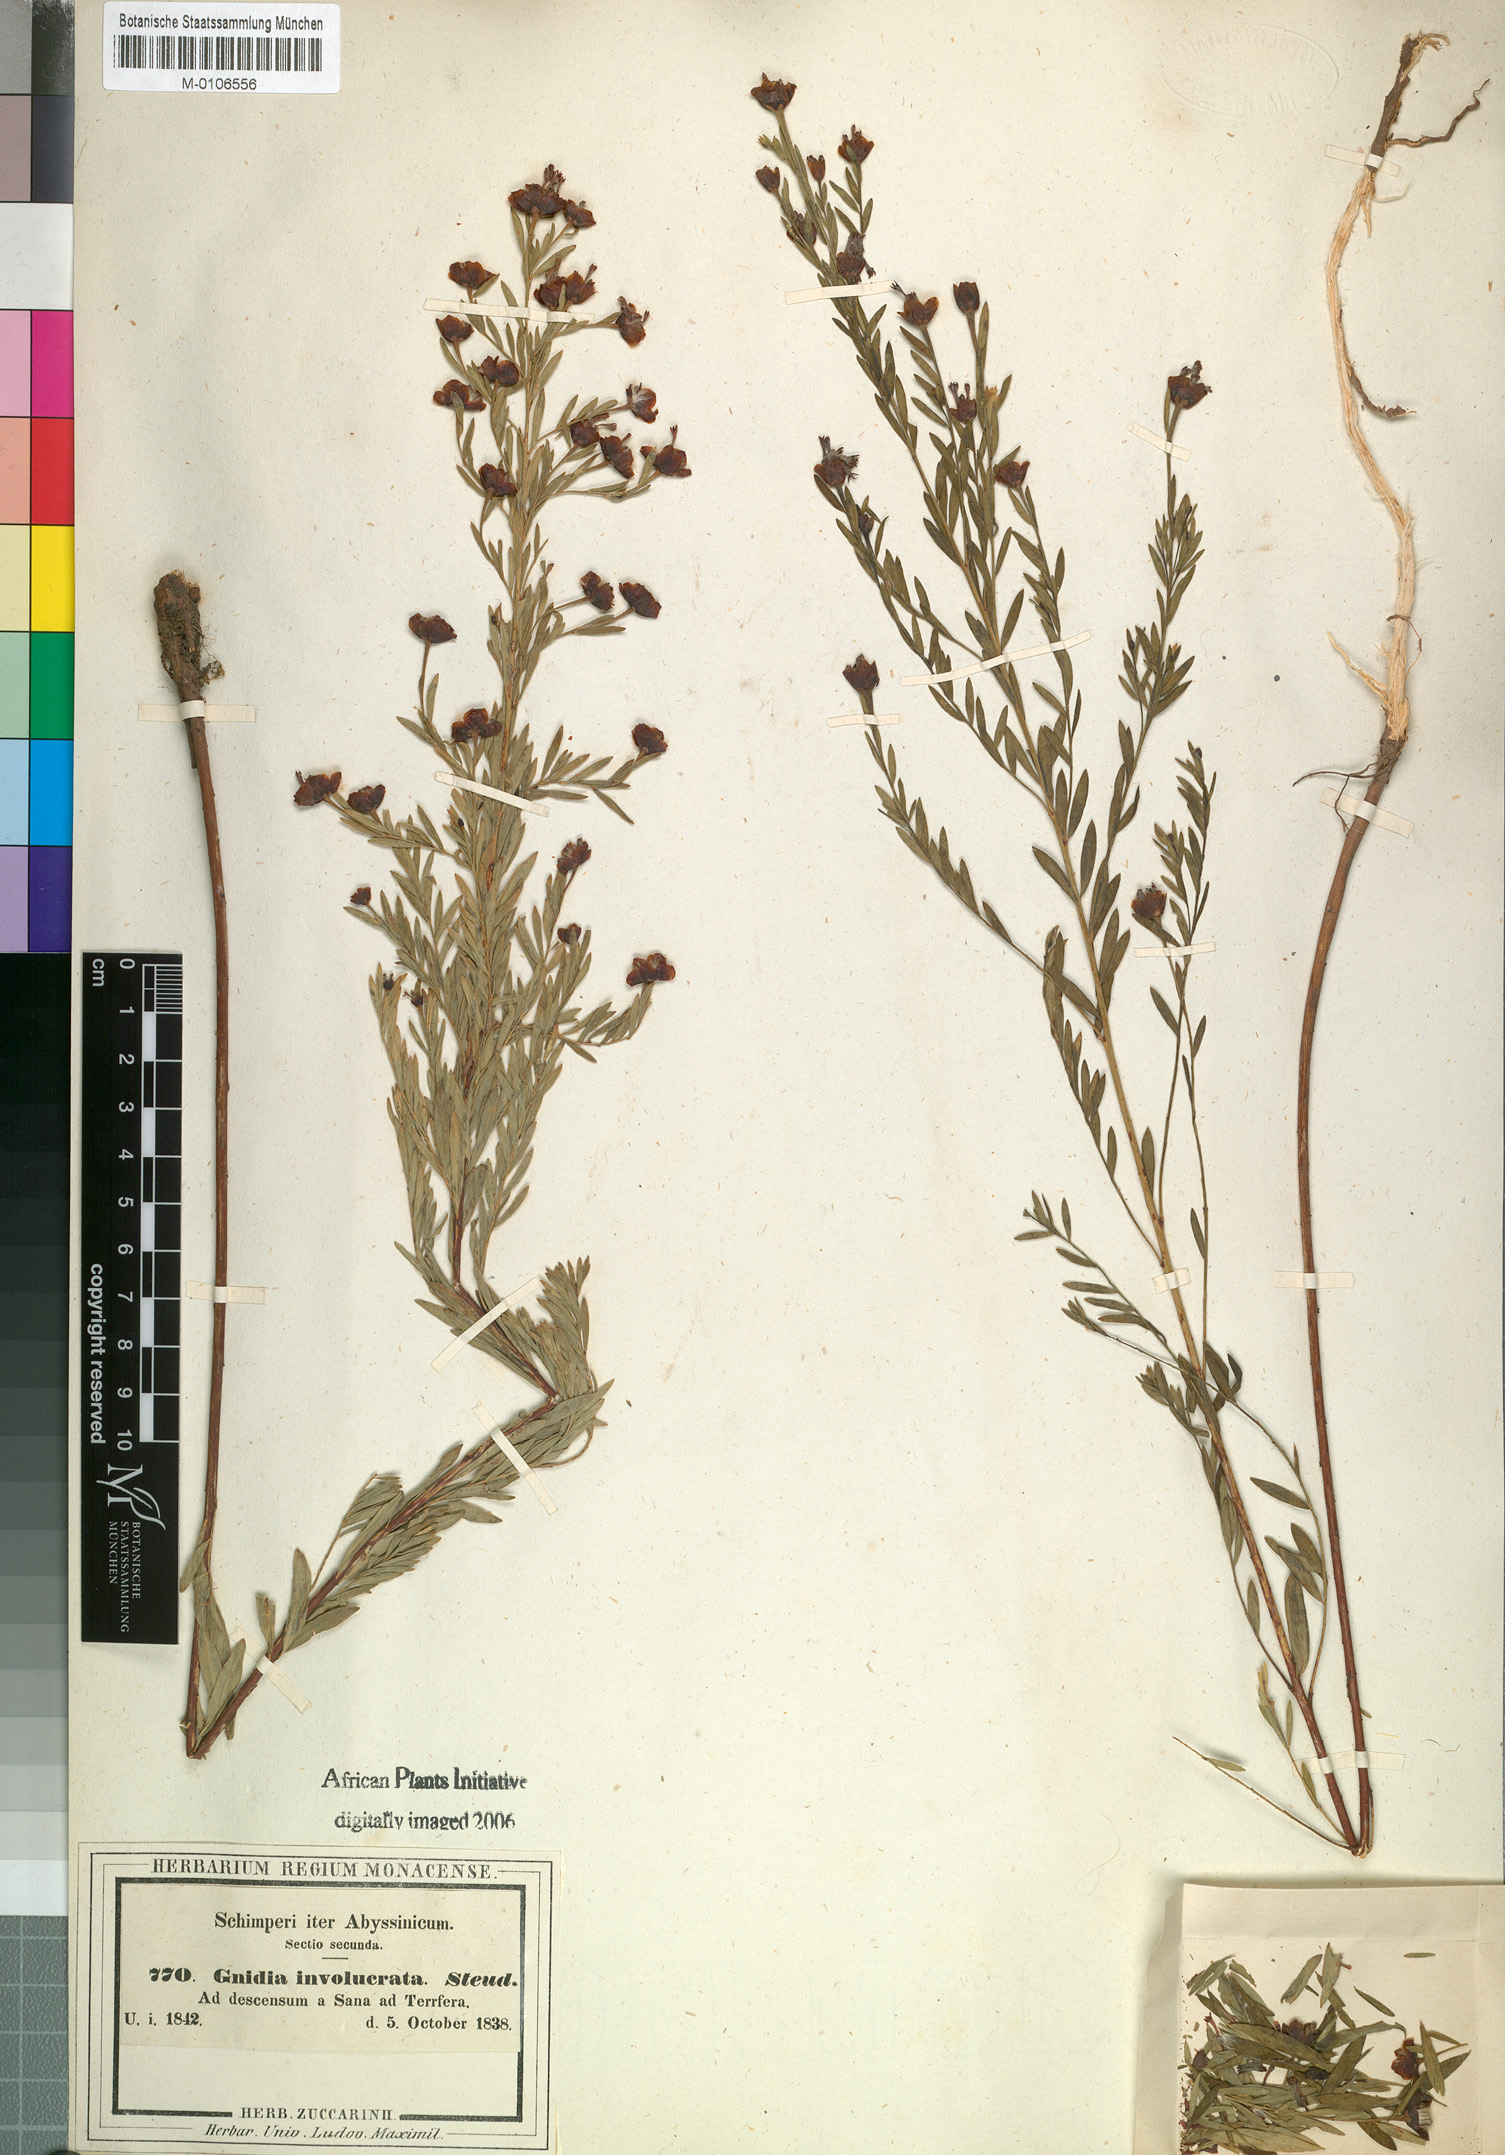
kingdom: Plantae
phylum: Tracheophyta
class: Magnoliopsida
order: Malvales
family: Thymelaeaceae
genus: Gnidia
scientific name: Gnidia involucrata
